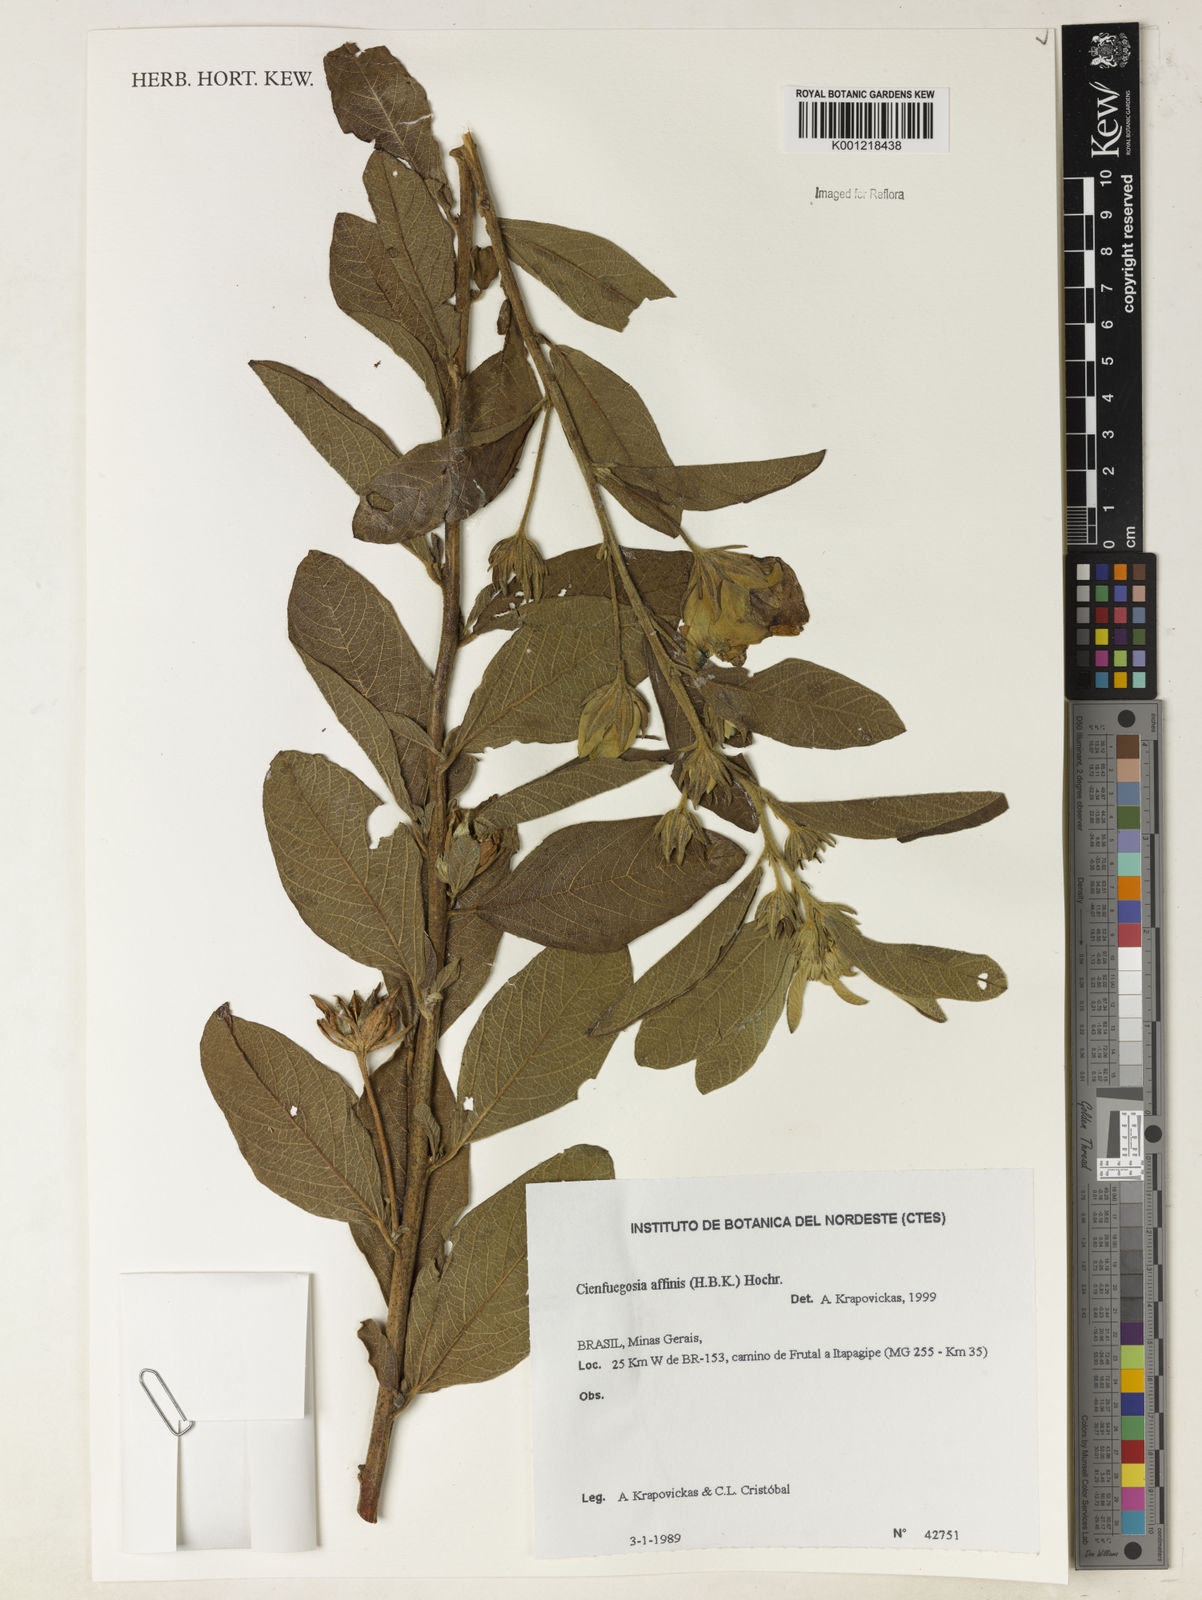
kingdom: Plantae
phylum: Tracheophyta
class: Magnoliopsida
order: Malvales
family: Malvaceae
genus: Cienfuegosia
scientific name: Cienfuegosia affinis
